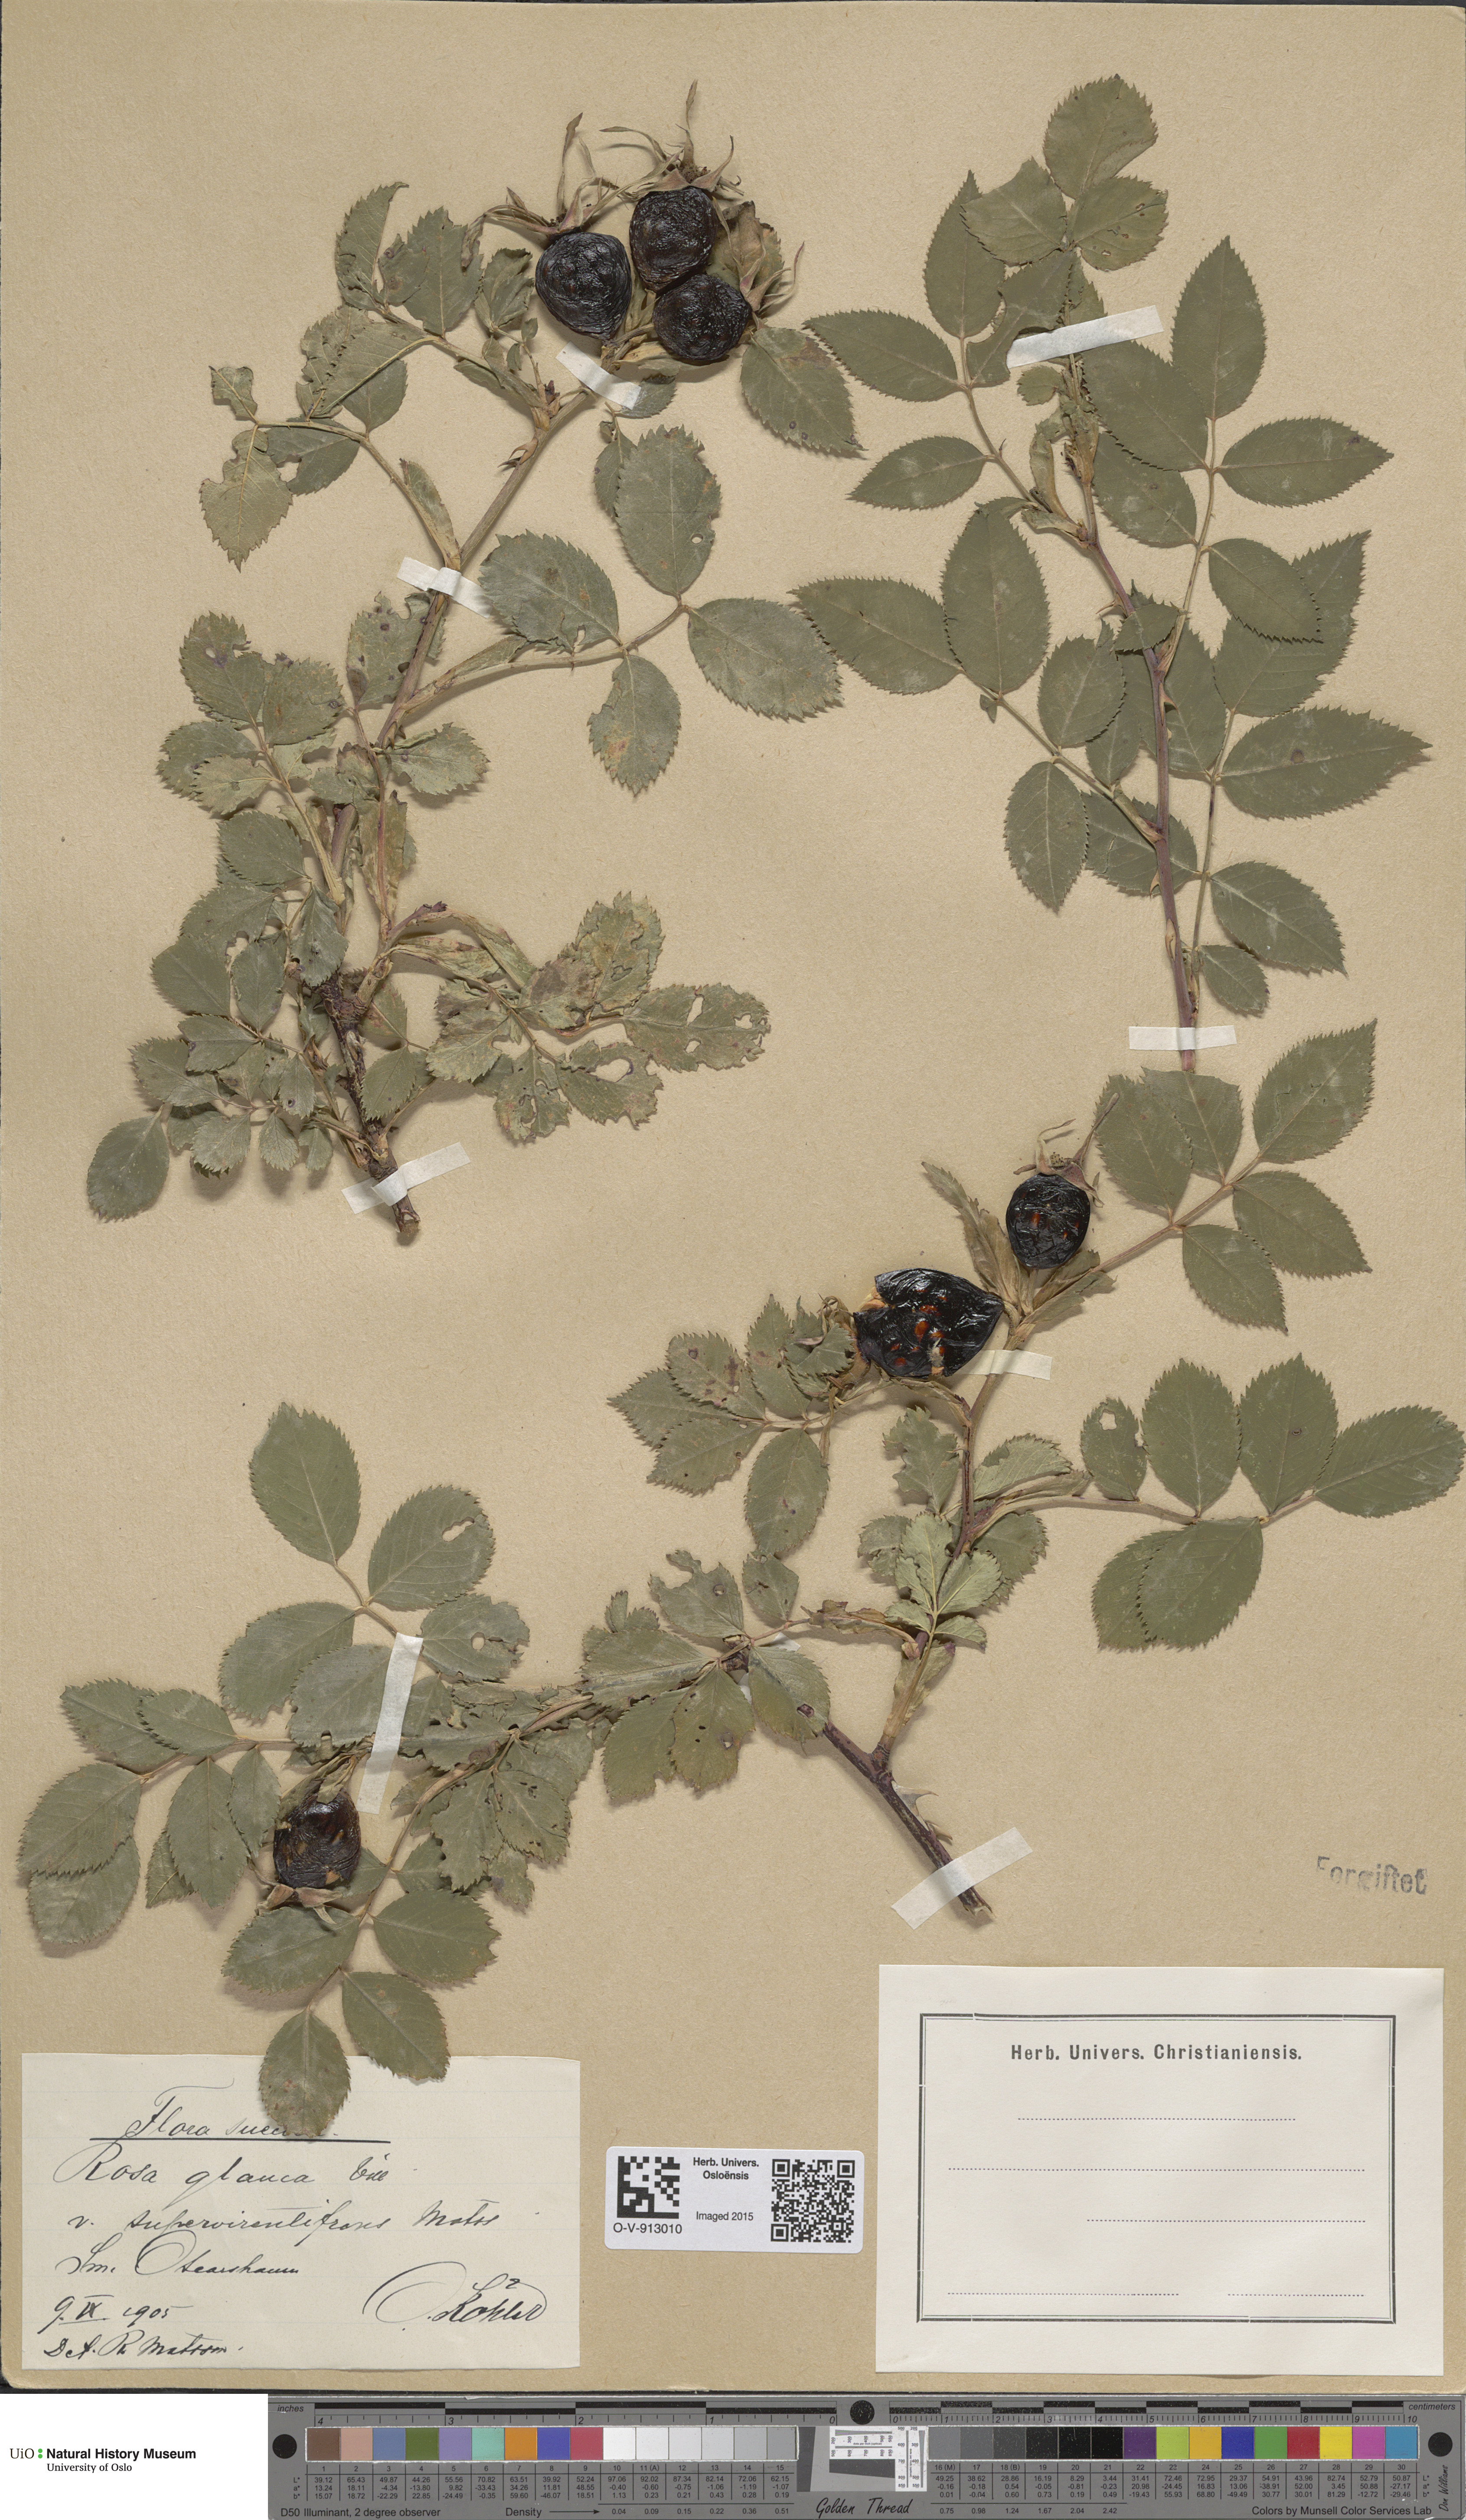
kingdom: Plantae
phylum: Tracheophyta
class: Magnoliopsida
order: Rosales
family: Rosaceae
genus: Rosa
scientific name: Rosa glauca
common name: Redleaf rose
